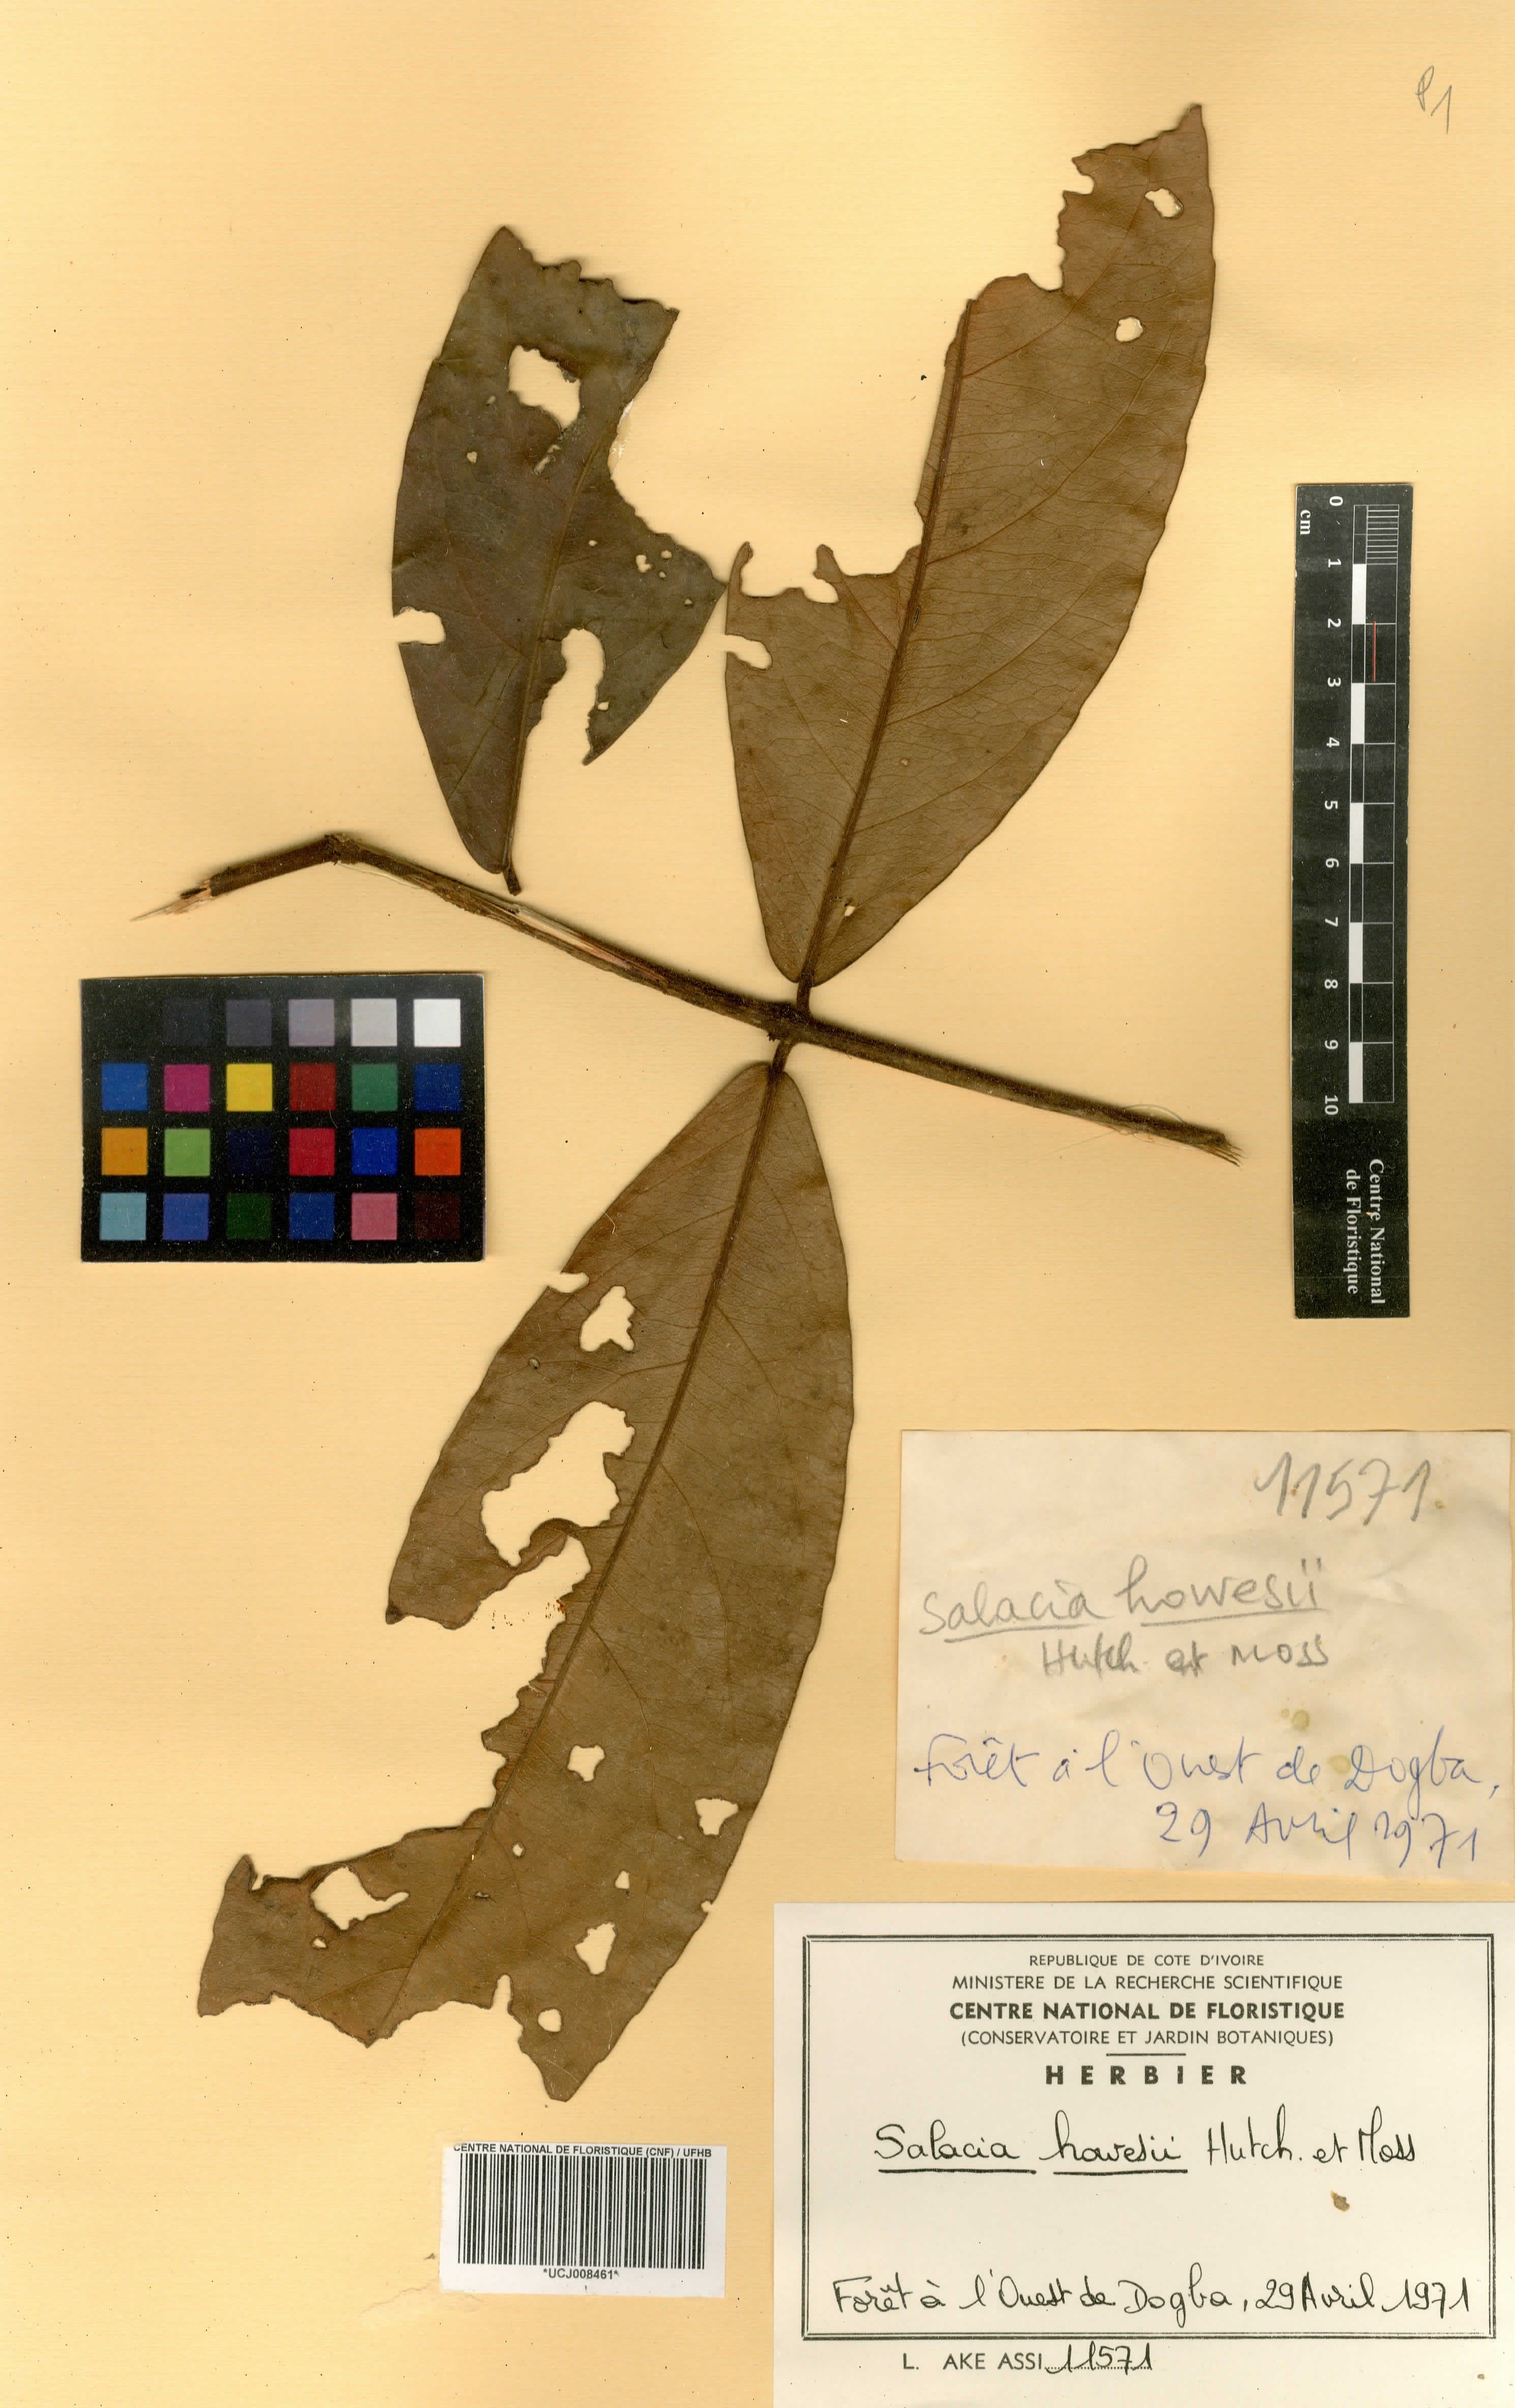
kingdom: Plantae
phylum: Tracheophyta
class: Magnoliopsida
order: Celastrales
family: Celastraceae
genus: Salacia
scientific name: Salacia howesii
